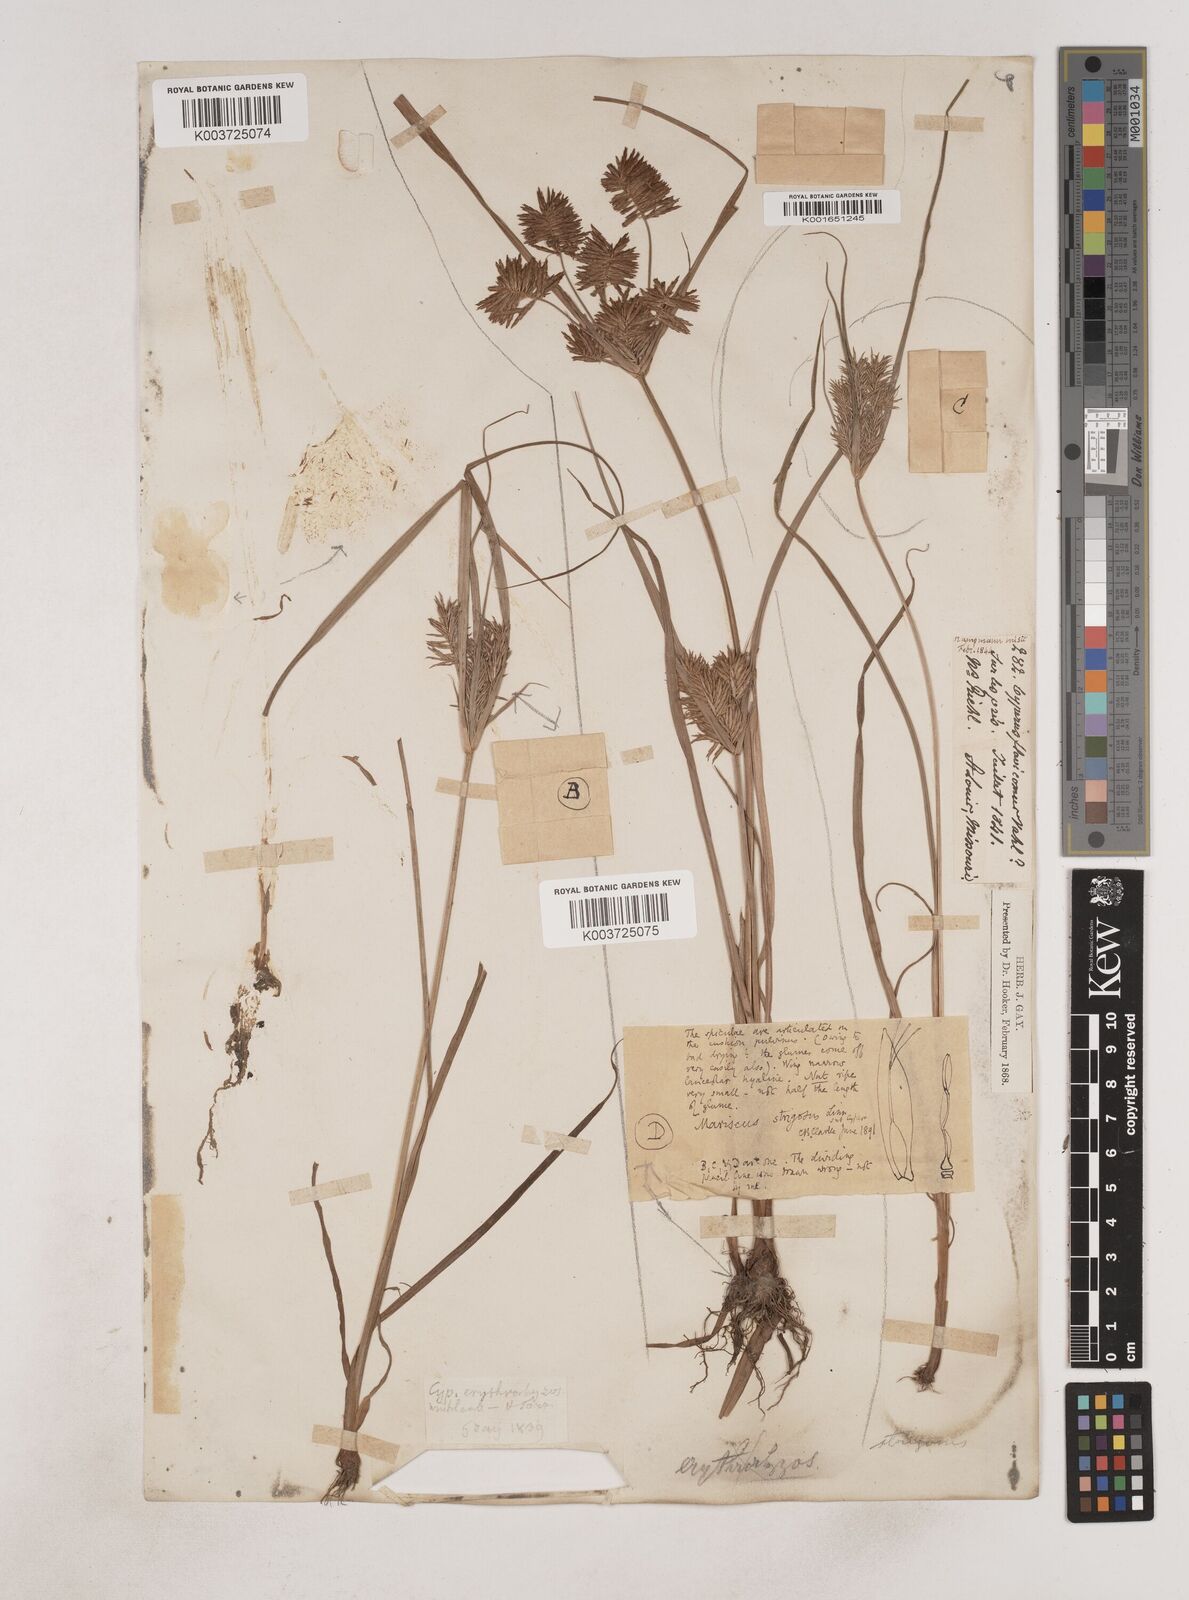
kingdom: Plantae
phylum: Tracheophyta
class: Liliopsida
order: Poales
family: Cyperaceae
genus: Cyperus
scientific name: Cyperus strigosus
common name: False nutsedge
